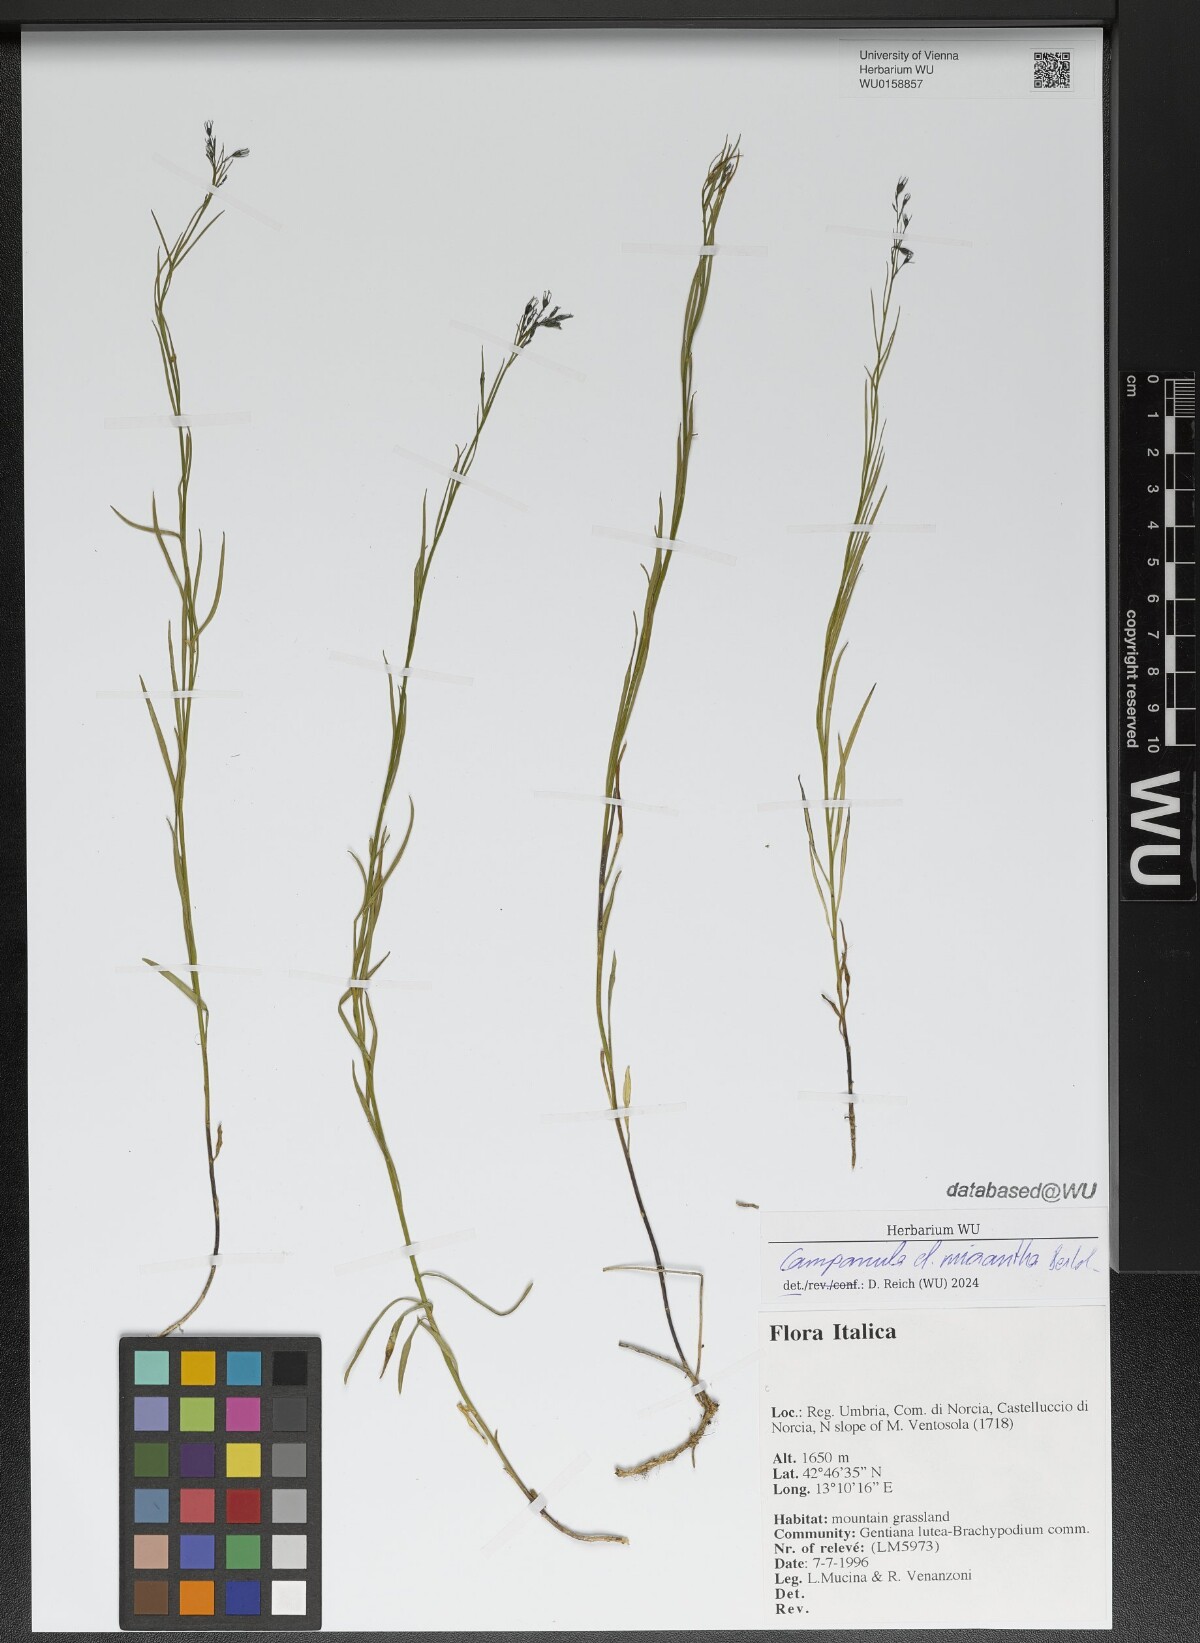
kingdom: Plantae
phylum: Tracheophyta
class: Magnoliopsida
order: Asterales
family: Campanulaceae
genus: Campanula
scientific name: Campanula micrantha
